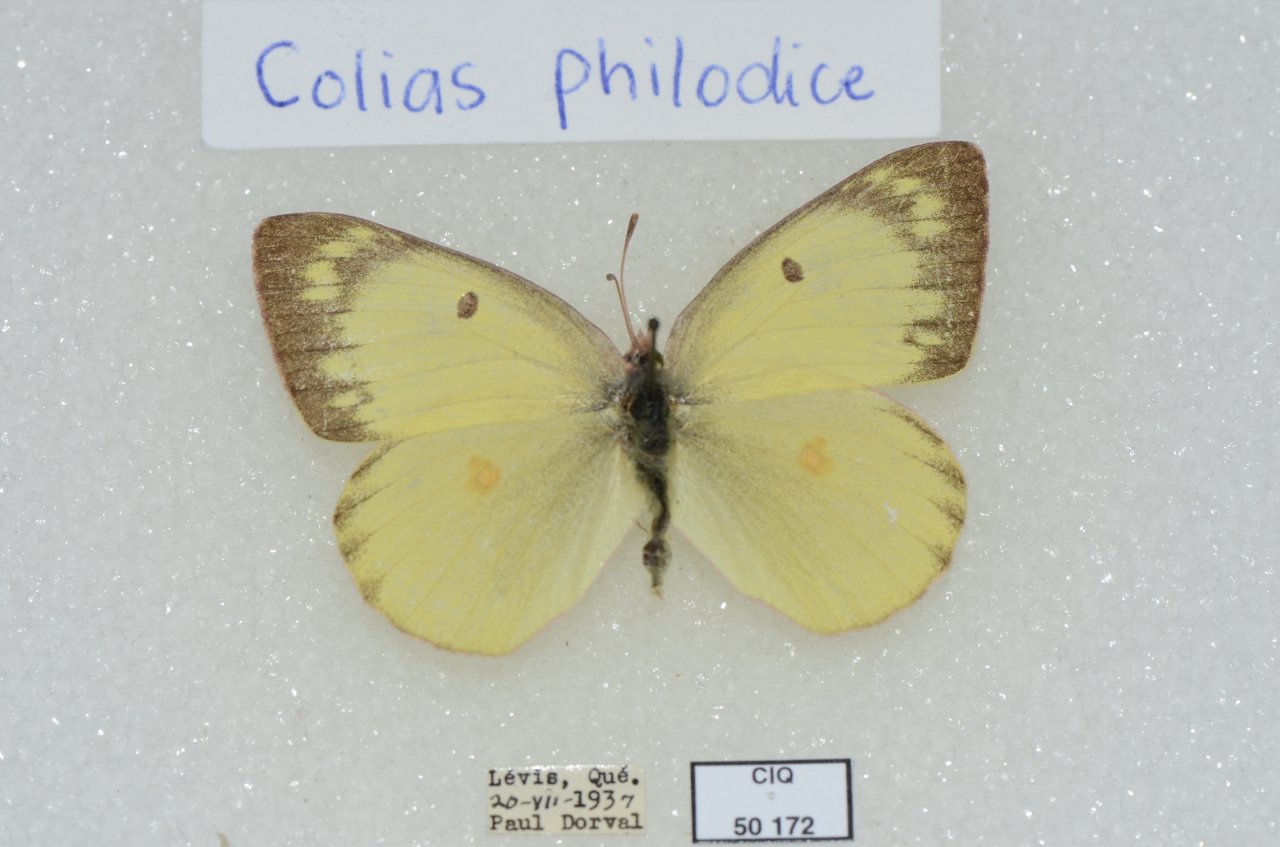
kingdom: Animalia
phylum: Arthropoda
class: Insecta
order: Lepidoptera
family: Pieridae
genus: Colias
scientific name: Colias philodice
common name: Clouded Sulphur
